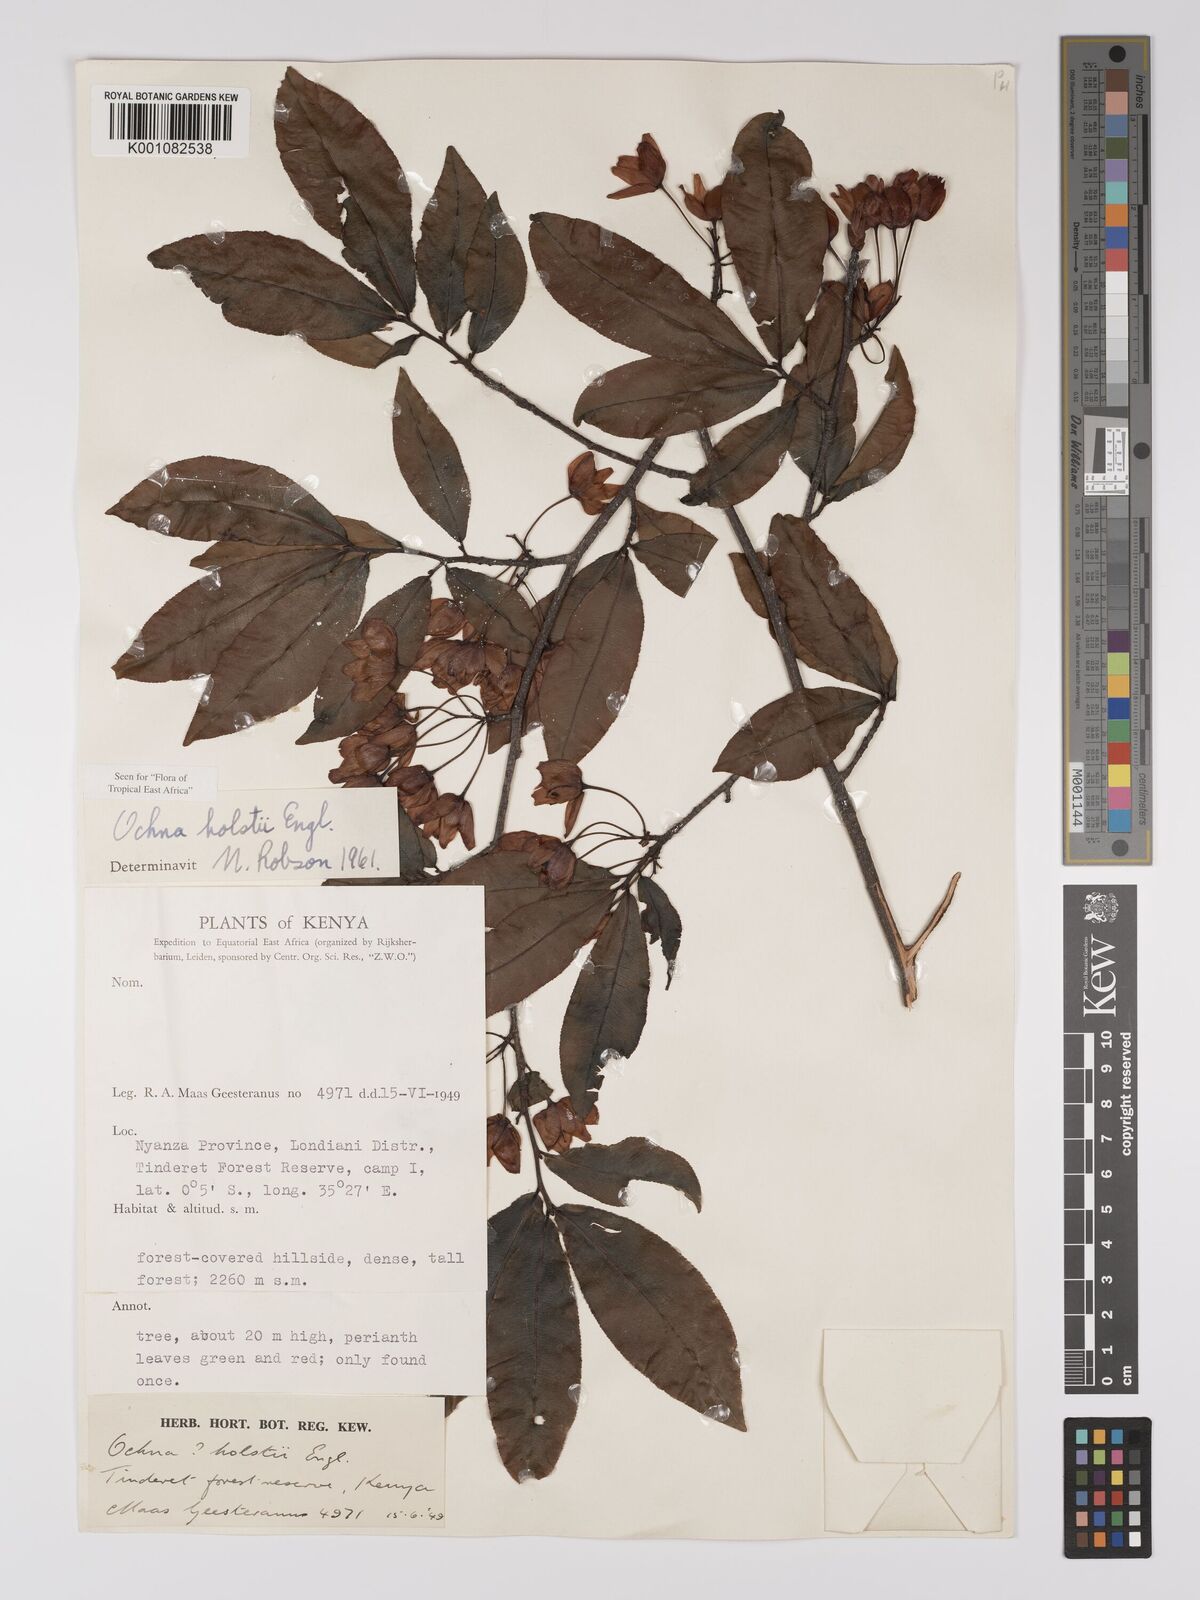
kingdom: Plantae
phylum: Tracheophyta
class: Magnoliopsida
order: Malpighiales
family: Ochnaceae
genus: Ochna
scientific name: Ochna holstii
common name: Red ironwood
